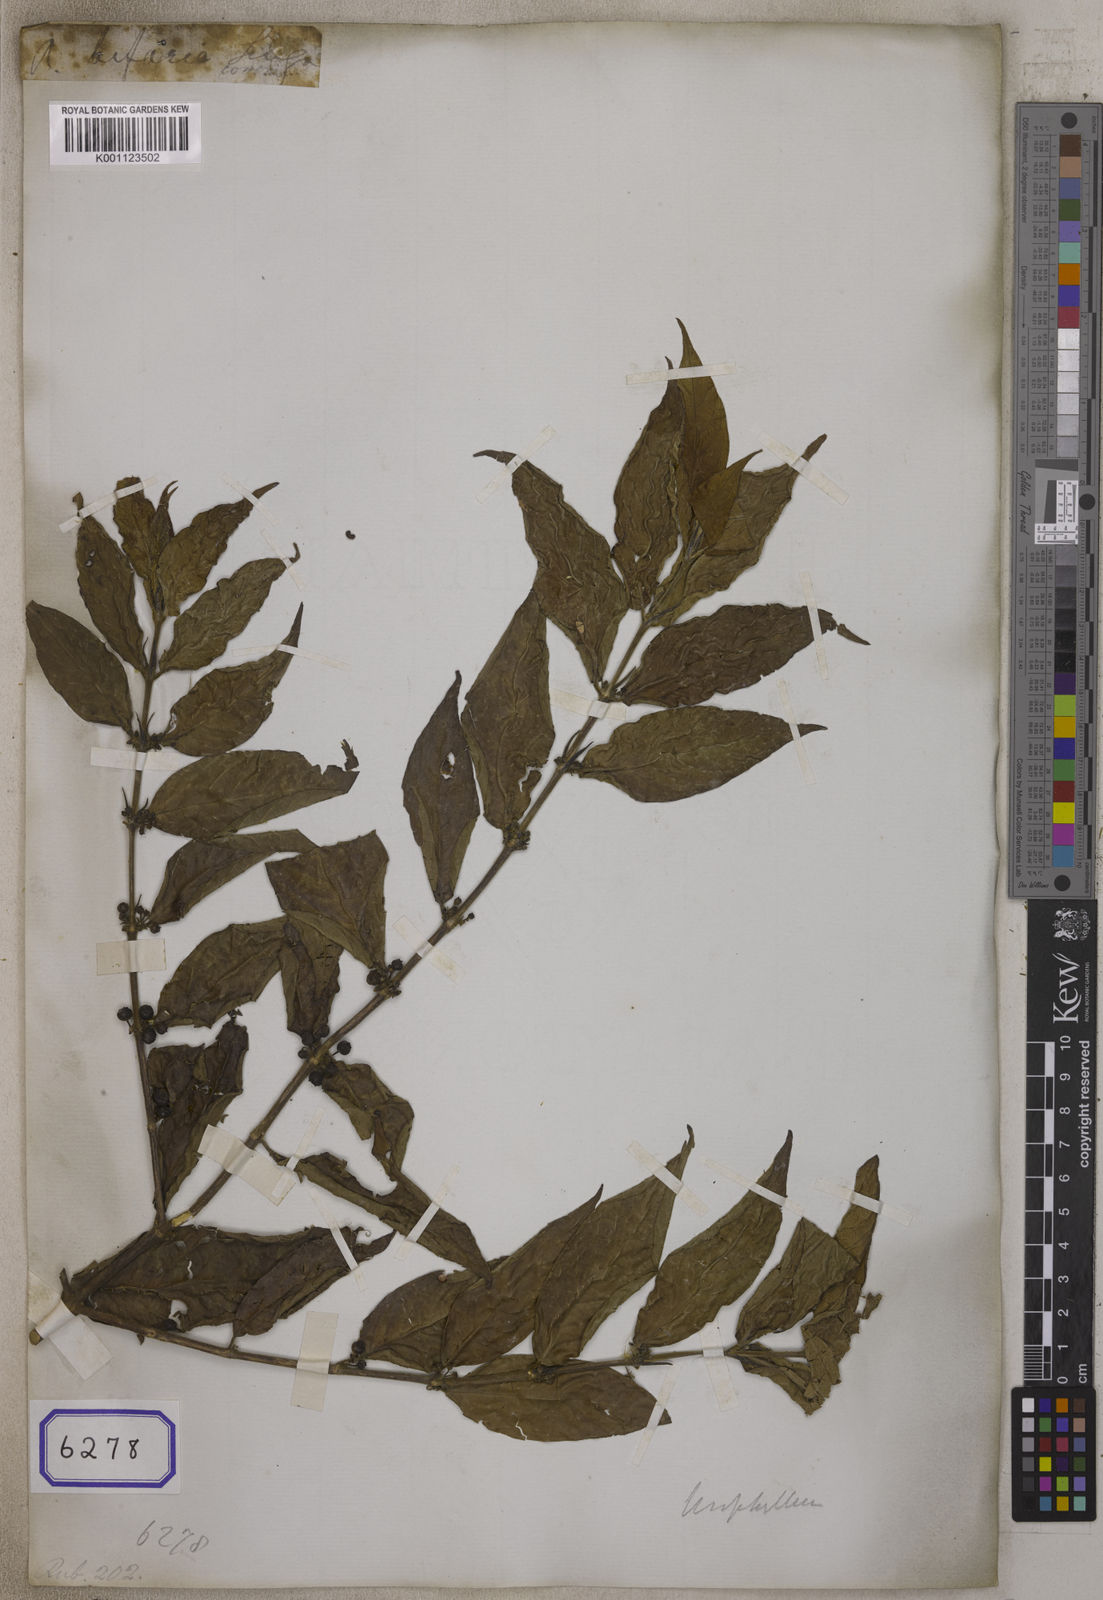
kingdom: Plantae
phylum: Tracheophyta
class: Magnoliopsida
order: Gentianales
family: Rubiaceae
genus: Urophyllum
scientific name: Urophyllum hirsutum
